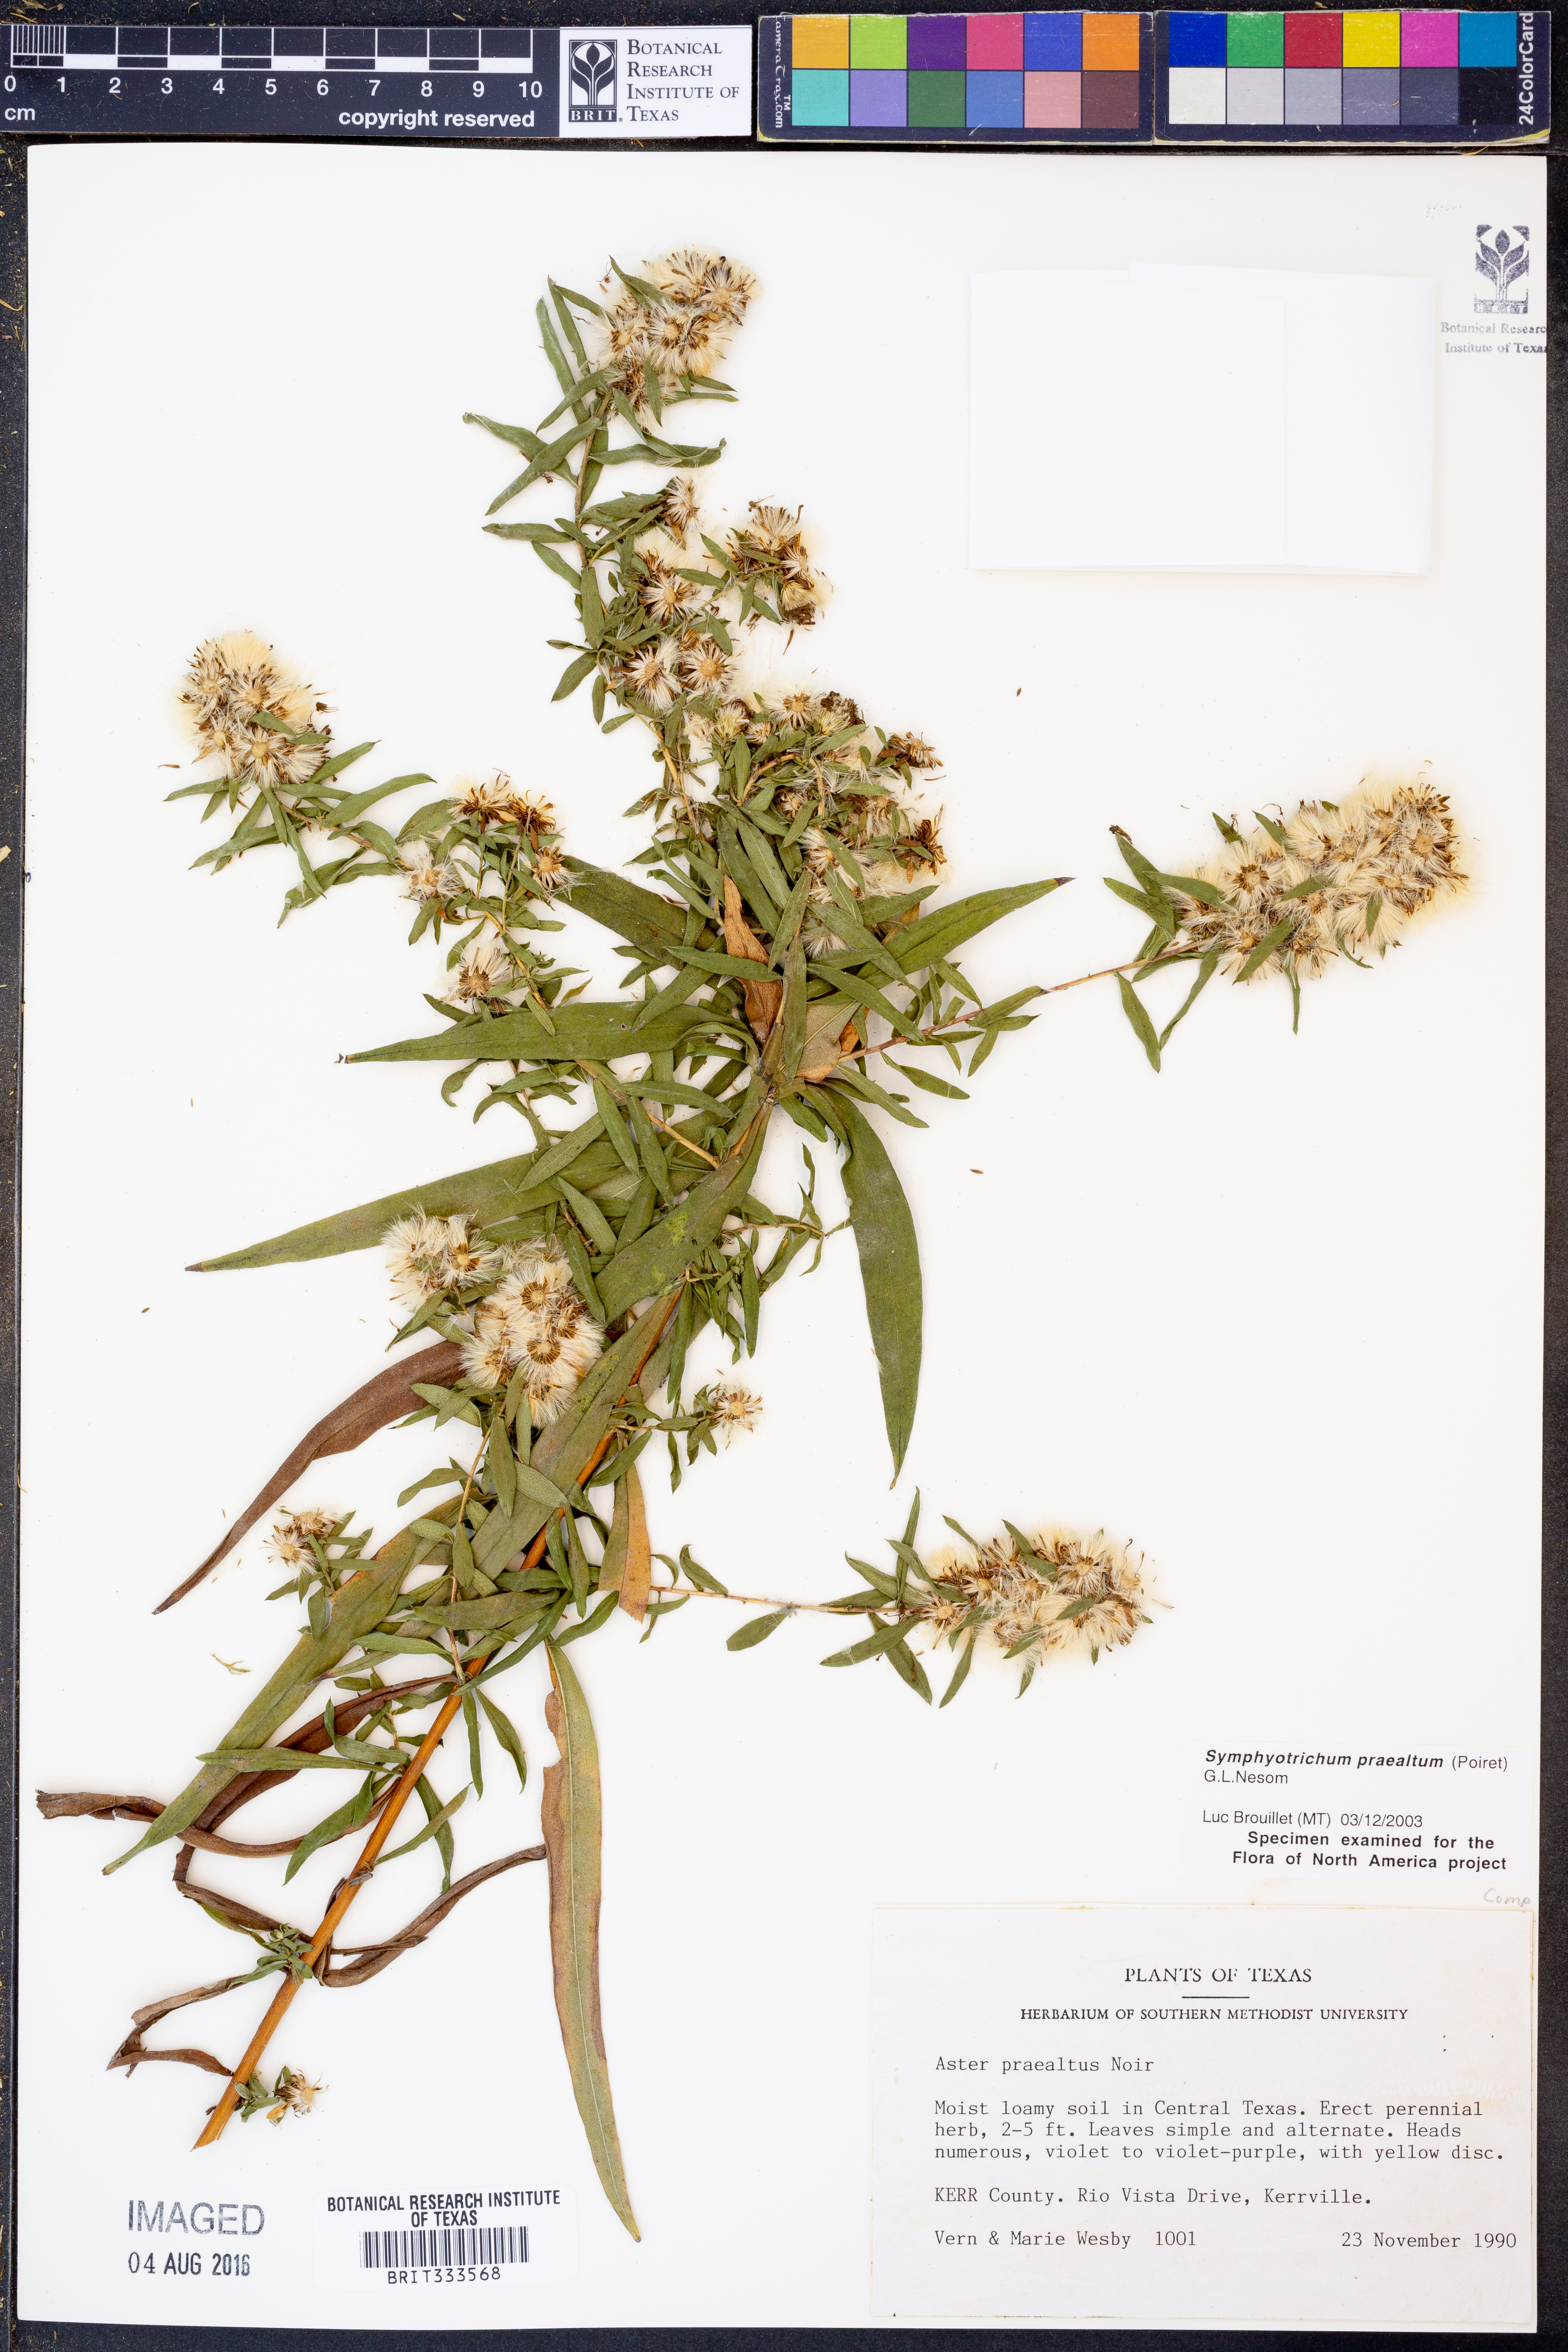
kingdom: Plantae
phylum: Tracheophyta
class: Magnoliopsida
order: Asterales
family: Asteraceae
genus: Symphyotrichum
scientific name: Symphyotrichum praealtum
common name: Willow aster
